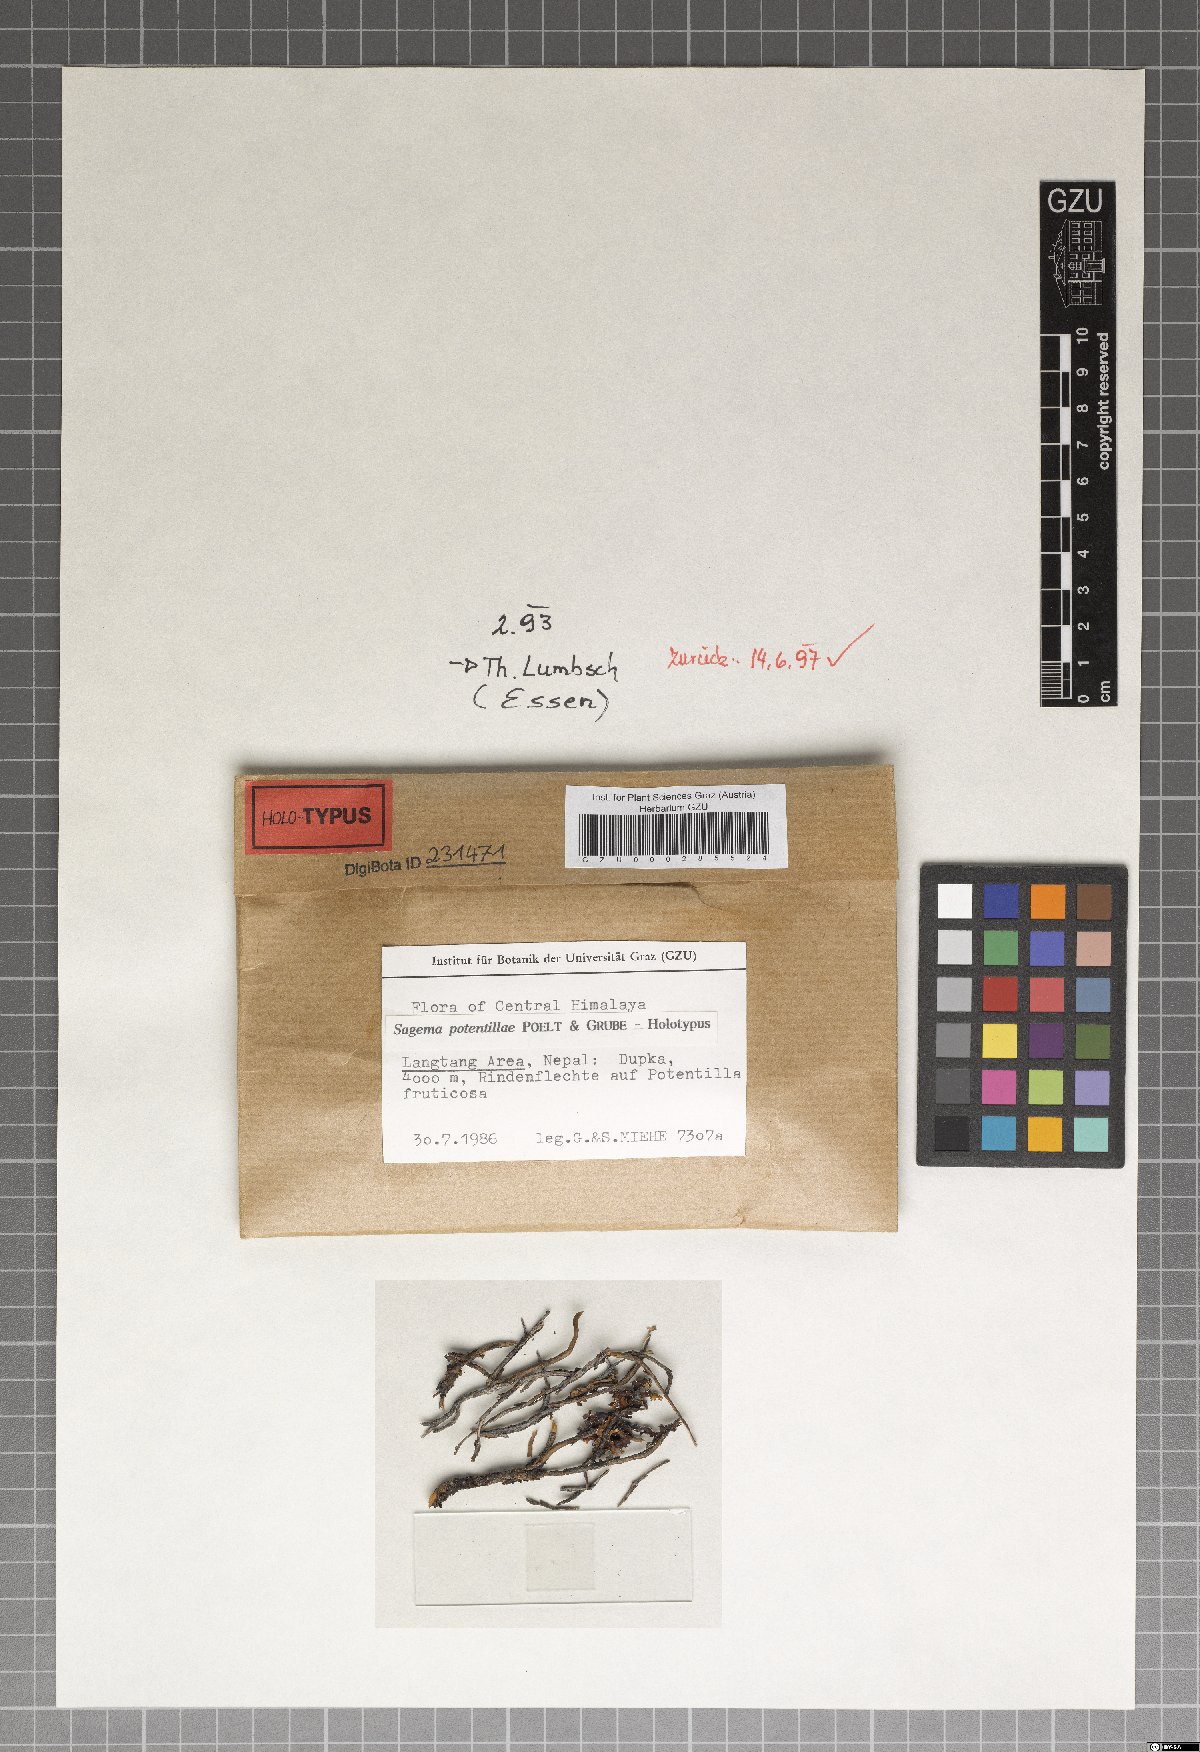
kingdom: Fungi
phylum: Ascomycota
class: Lecanoromycetes
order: Lecanorales
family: Lecanoraceae
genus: Sagema
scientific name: Sagema potentillae
